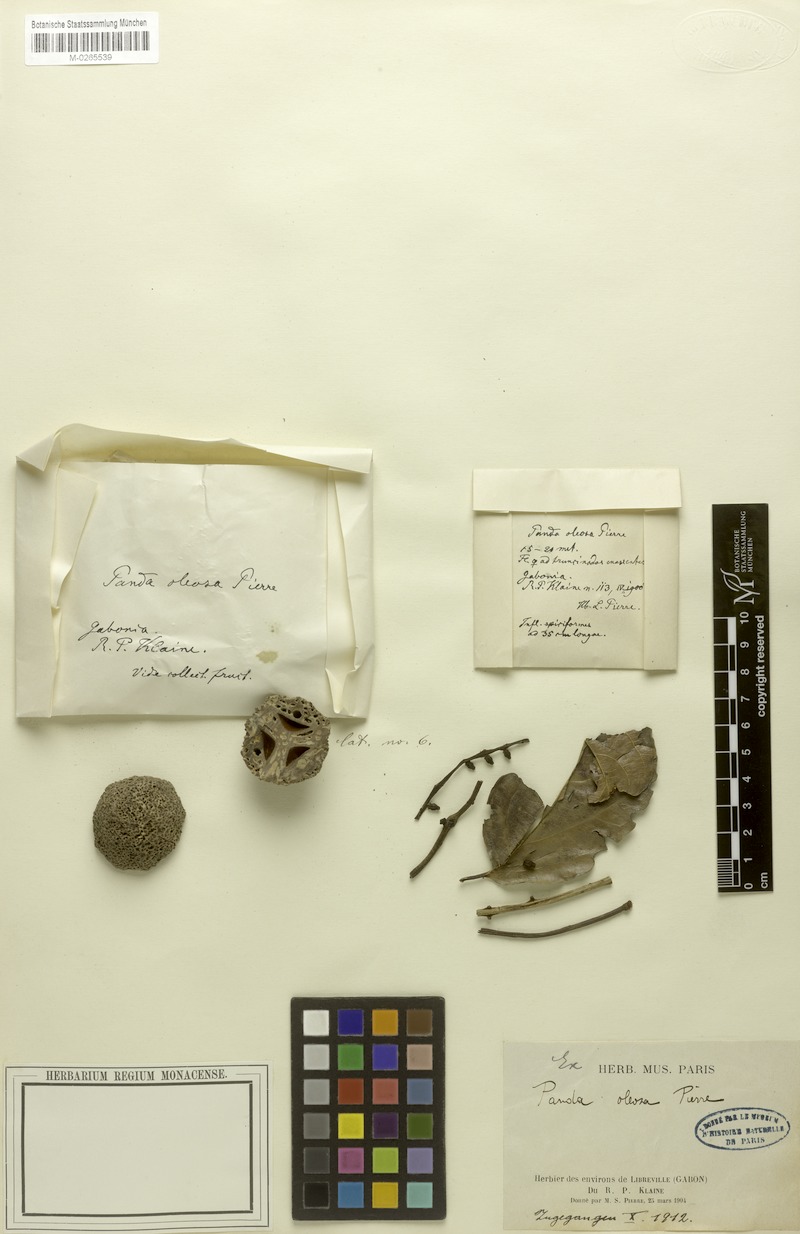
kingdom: Plantae
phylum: Tracheophyta
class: Magnoliopsida
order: Malpighiales
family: Pandaceae
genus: Panda
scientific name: Panda oleosa
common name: Panda
